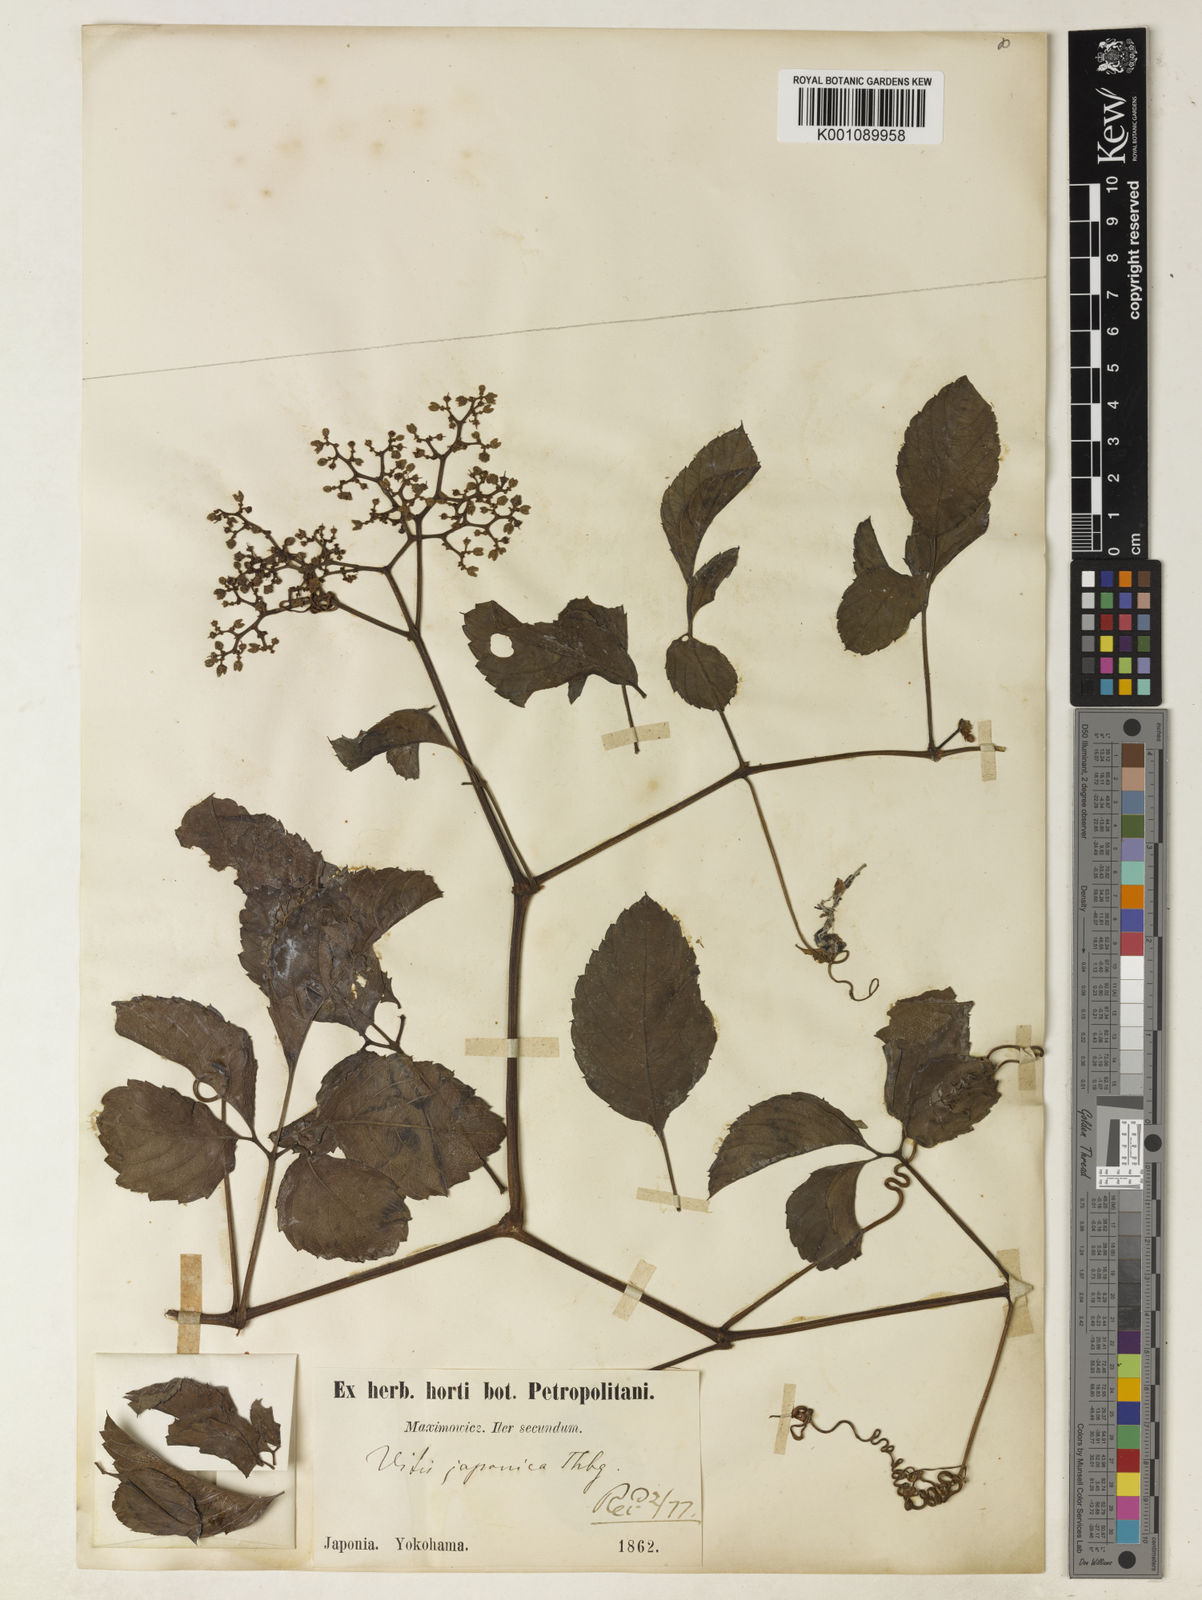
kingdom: Plantae
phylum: Tracheophyta
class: Magnoliopsida
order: Vitales
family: Vitaceae
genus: Causonis
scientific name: Causonis japonica
